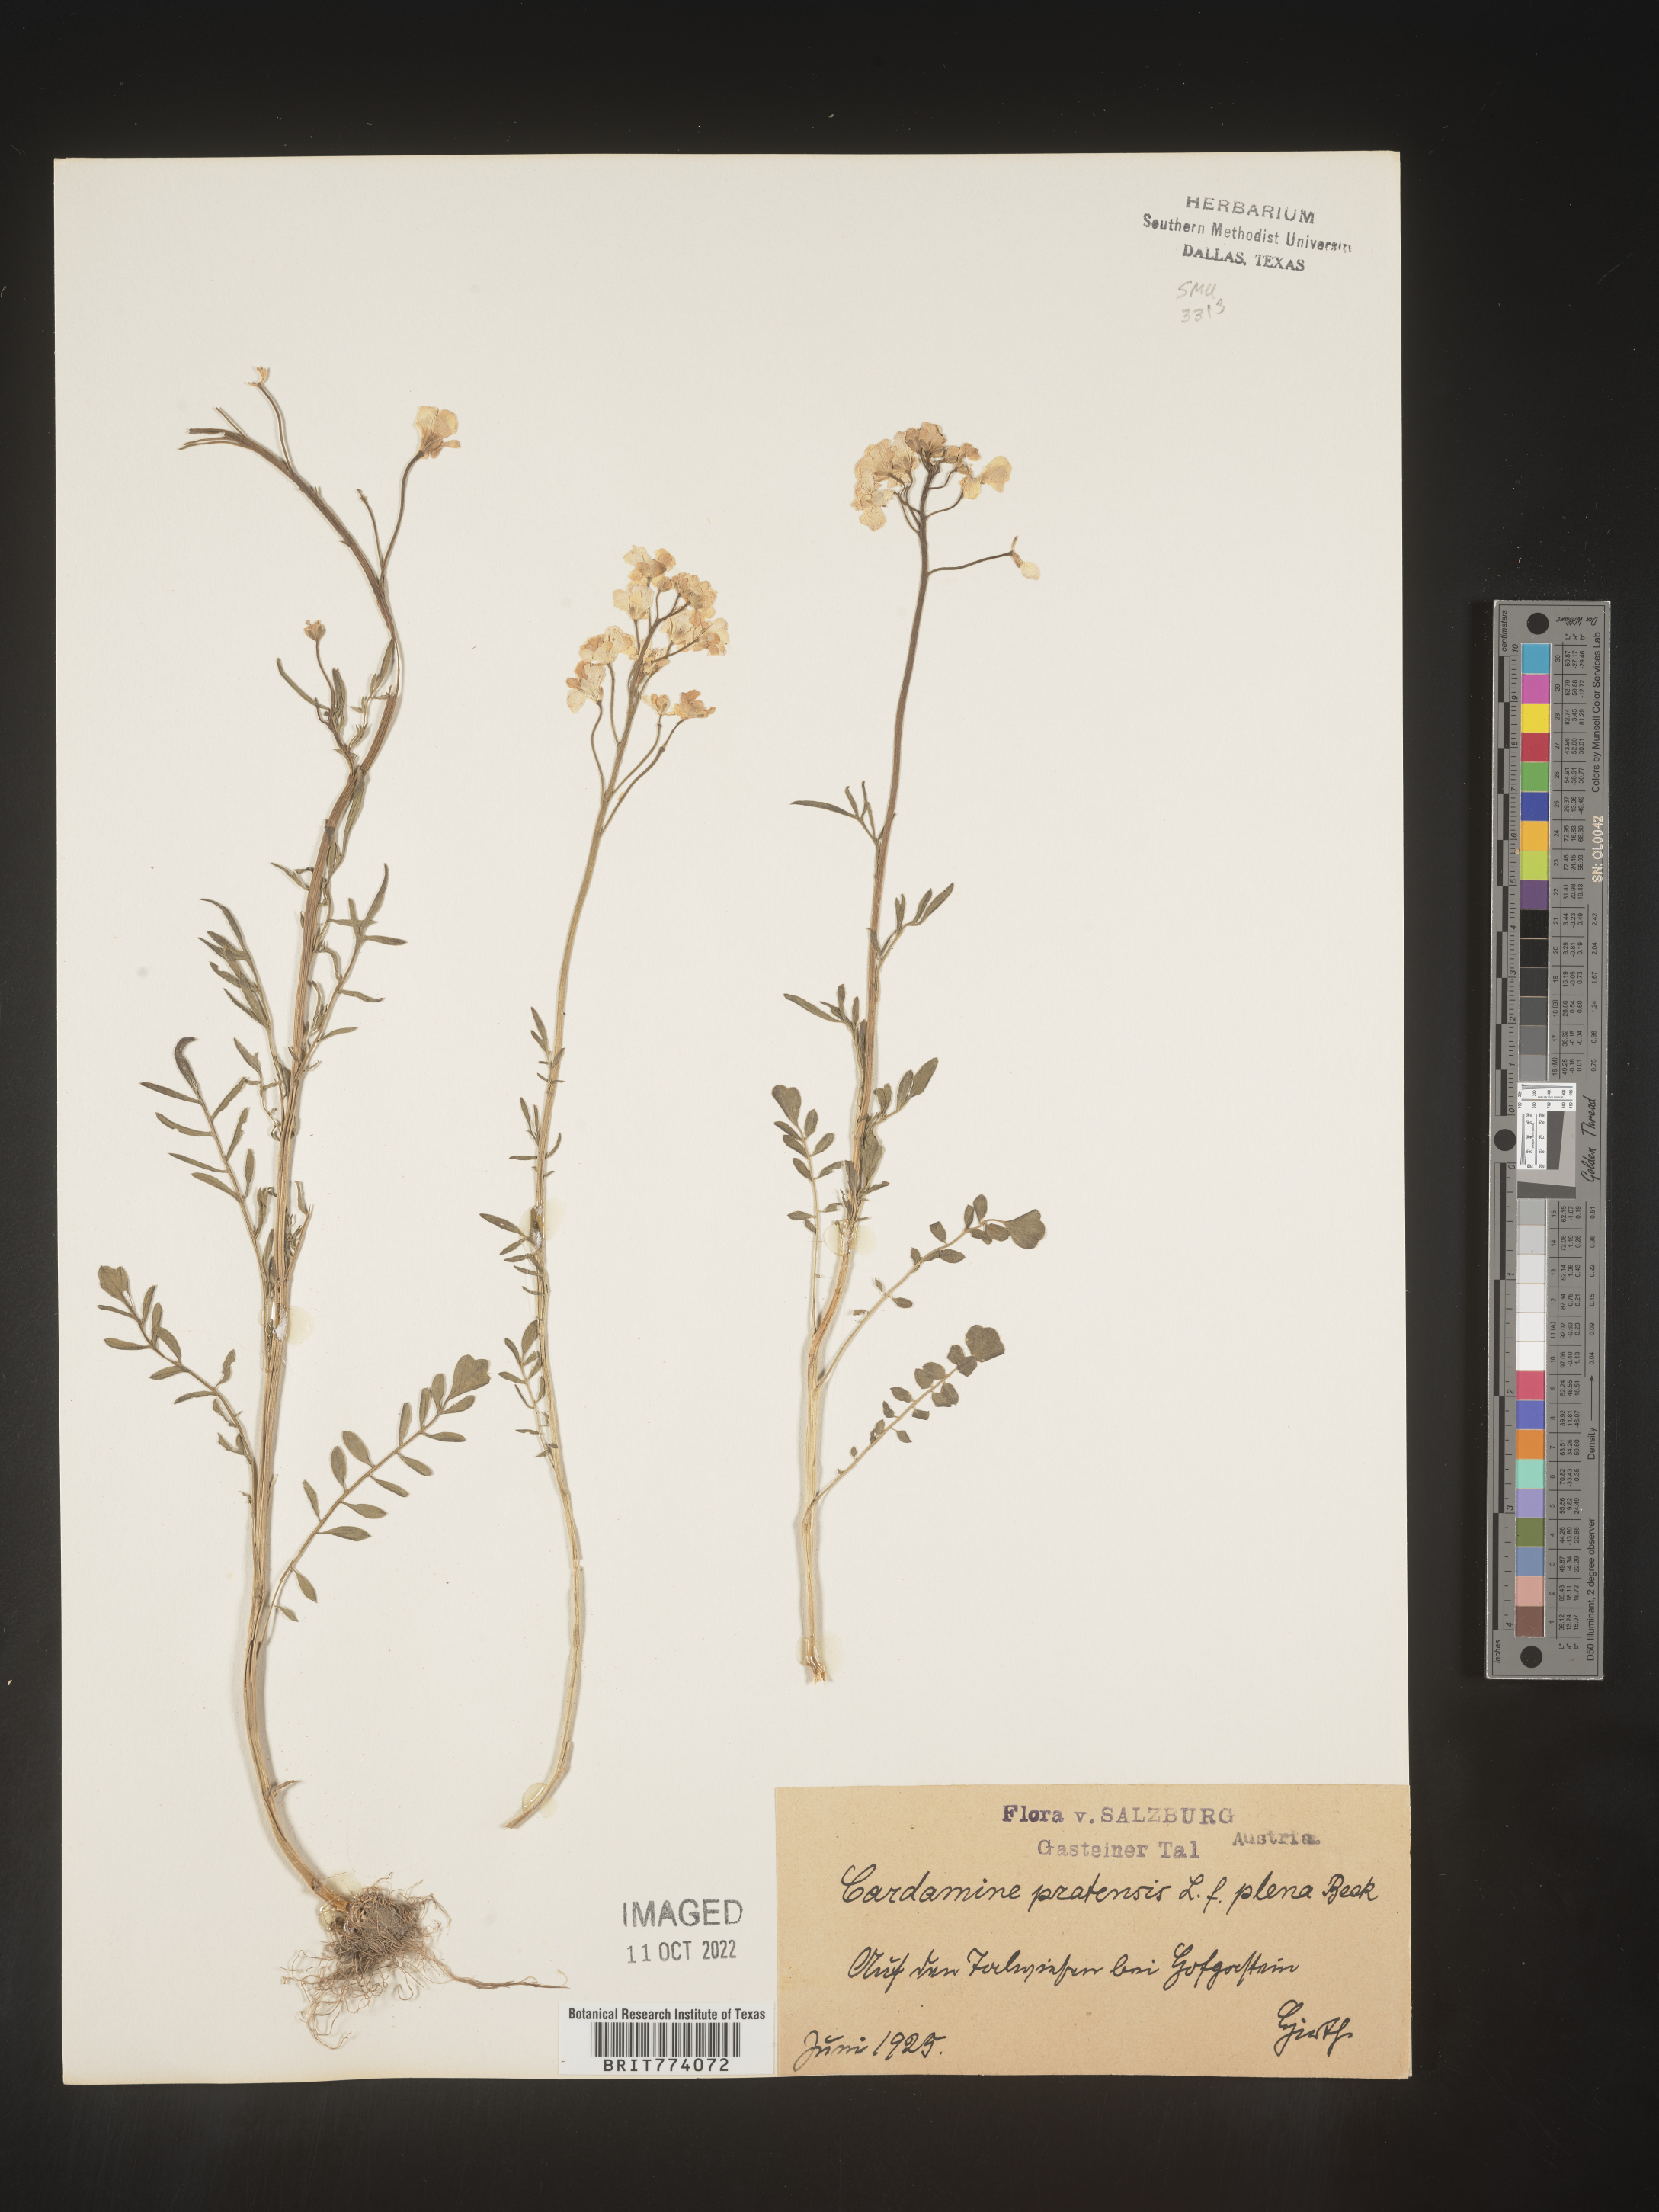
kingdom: Plantae
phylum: Tracheophyta
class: Magnoliopsida
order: Brassicales
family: Brassicaceae
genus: Cardamine
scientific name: Cardamine pratensis
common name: Cuckoo flower
